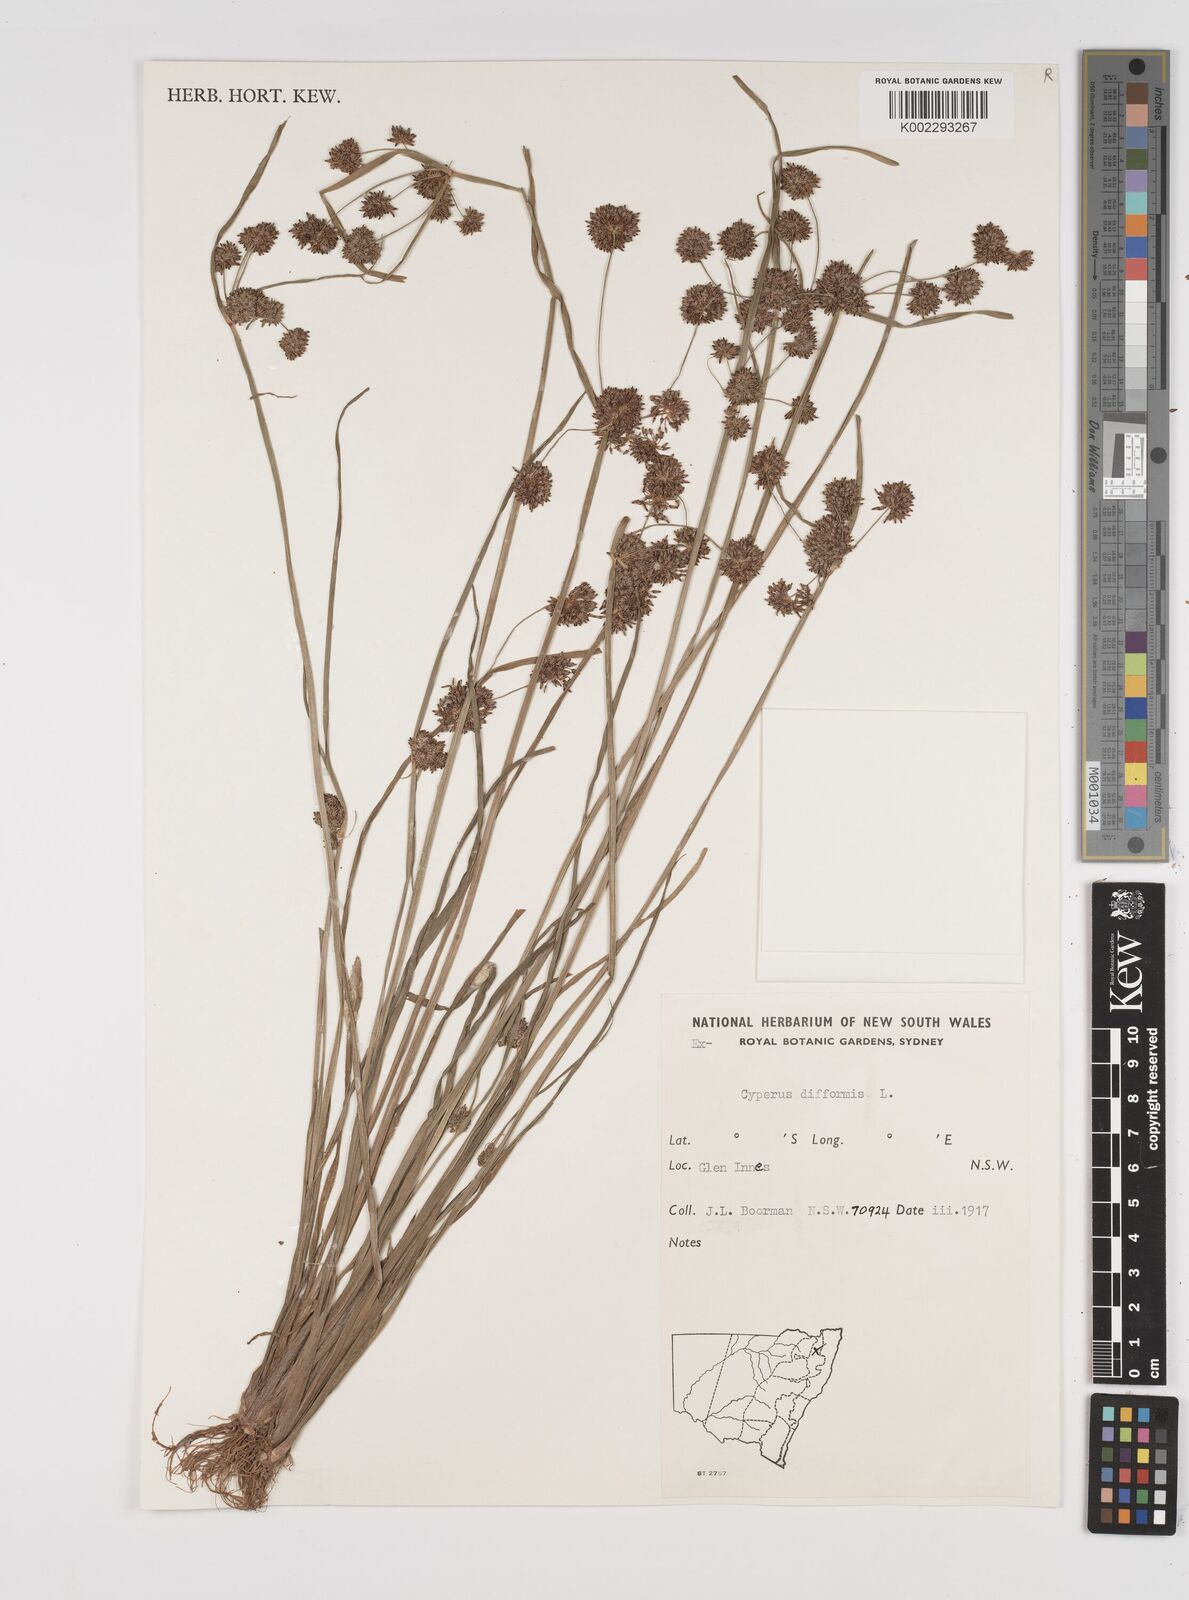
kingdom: Plantae
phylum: Tracheophyta
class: Liliopsida
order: Poales
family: Cyperaceae
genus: Cyperus
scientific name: Cyperus difformis
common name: Variable flatsedge
